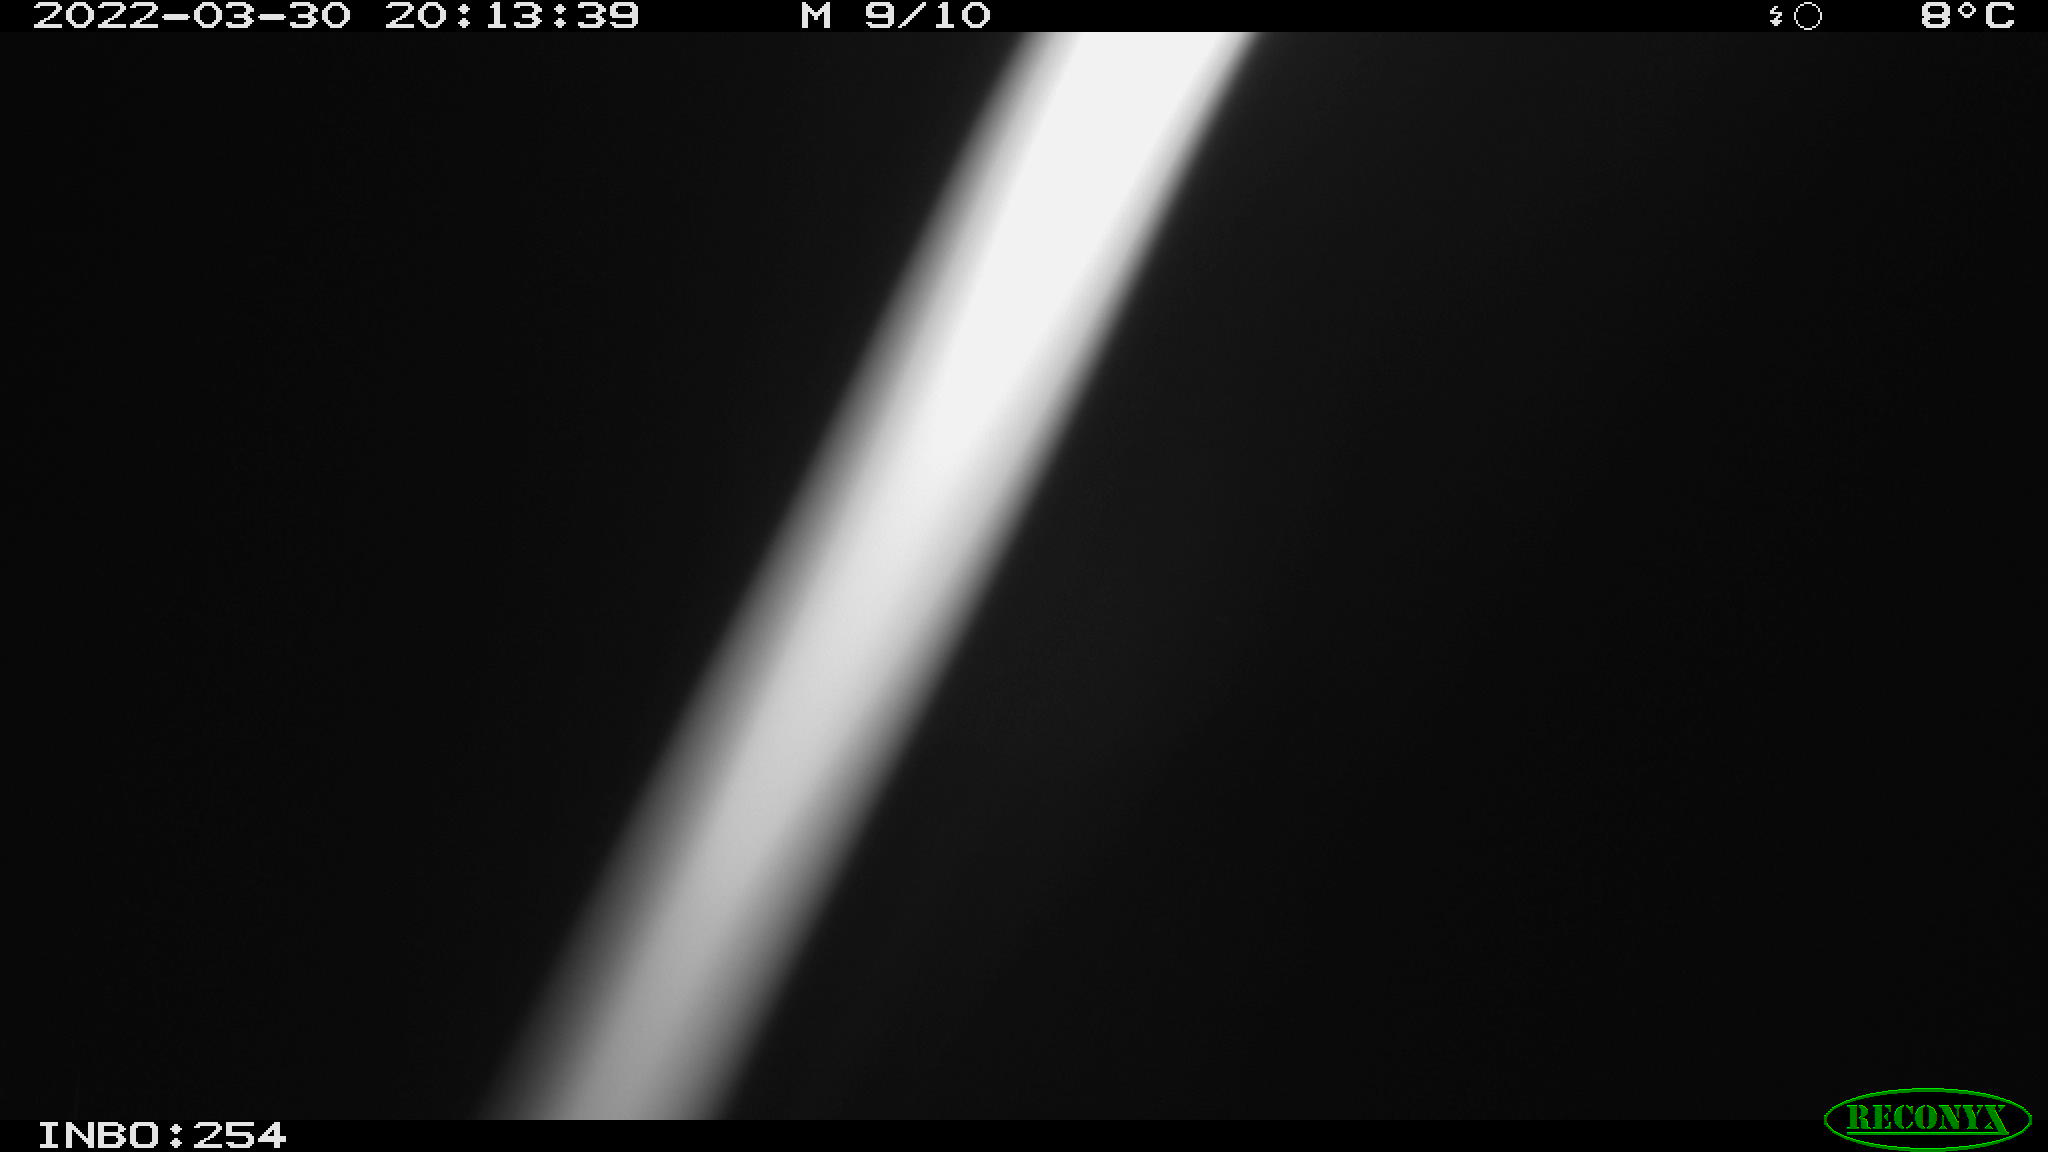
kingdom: Animalia
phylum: Chordata
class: Aves
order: Anseriformes
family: Anatidae
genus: Anas
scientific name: Anas platyrhynchos
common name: Mallard
